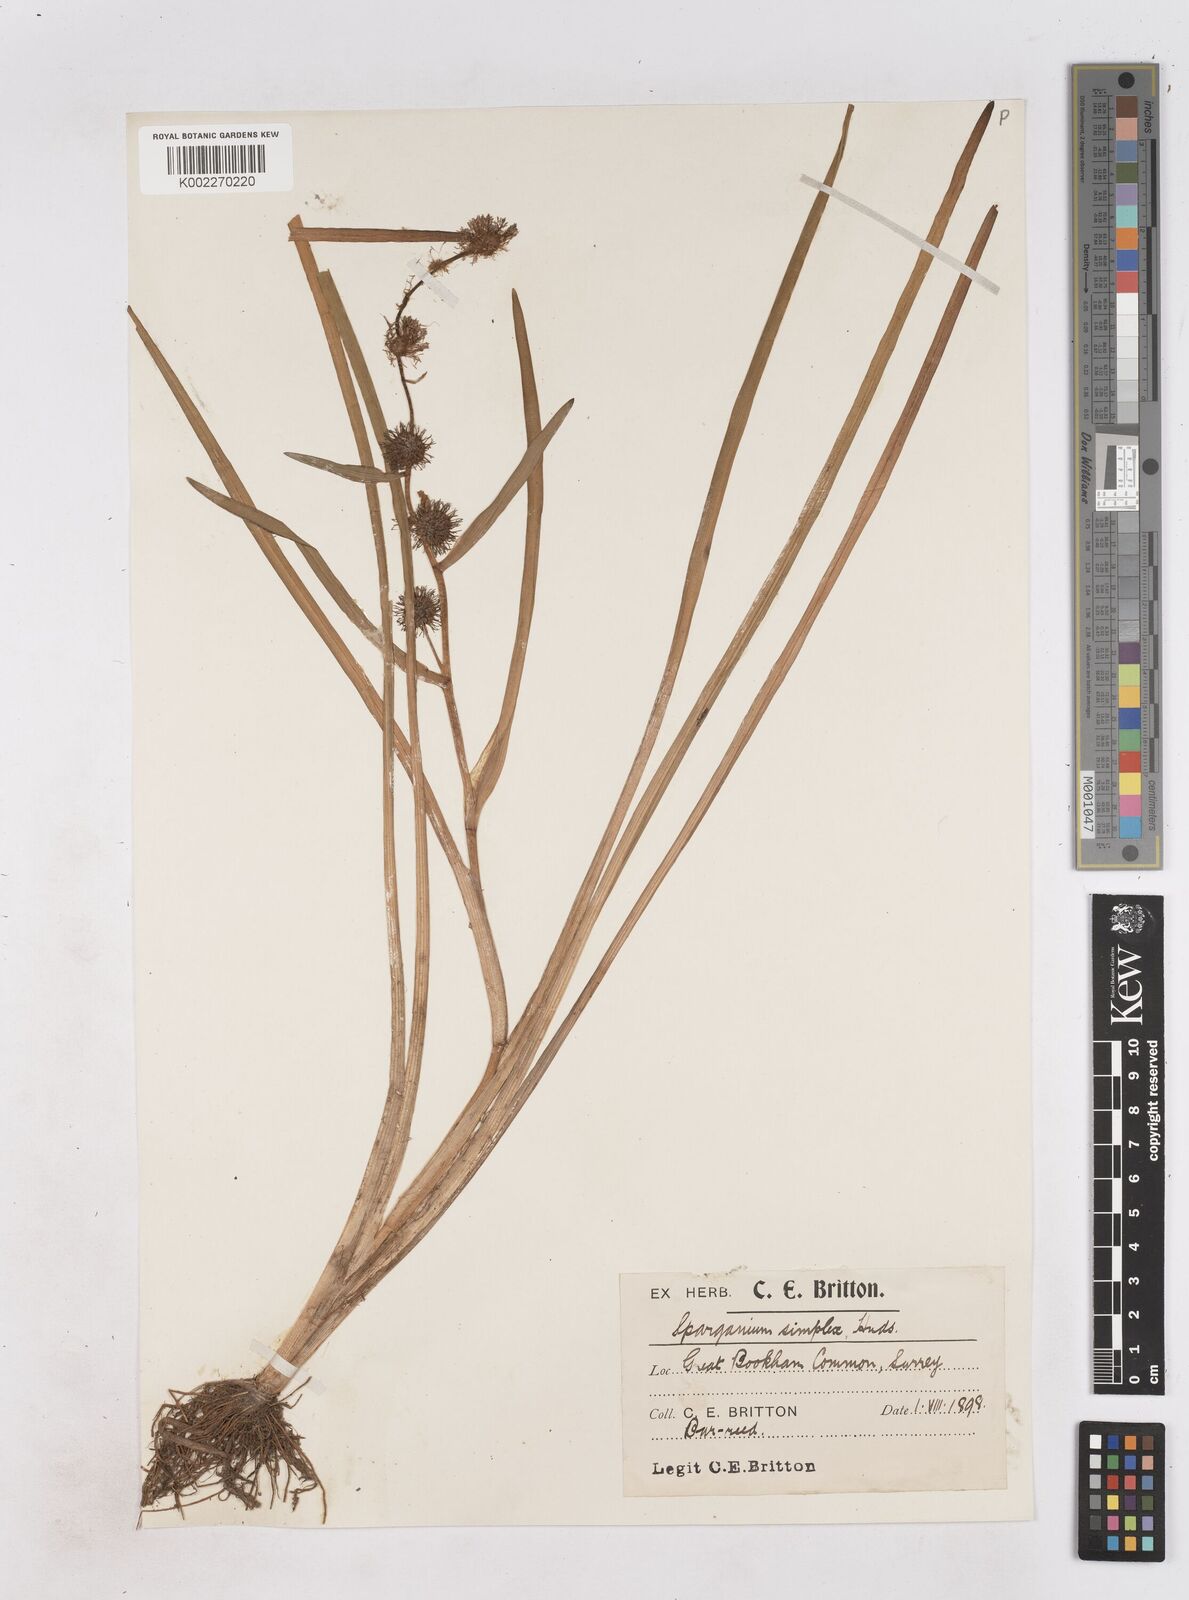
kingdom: Plantae
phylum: Tracheophyta
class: Liliopsida
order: Poales
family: Typhaceae
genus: Sparganium
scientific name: Sparganium emersum
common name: Unbranched bur-reed
